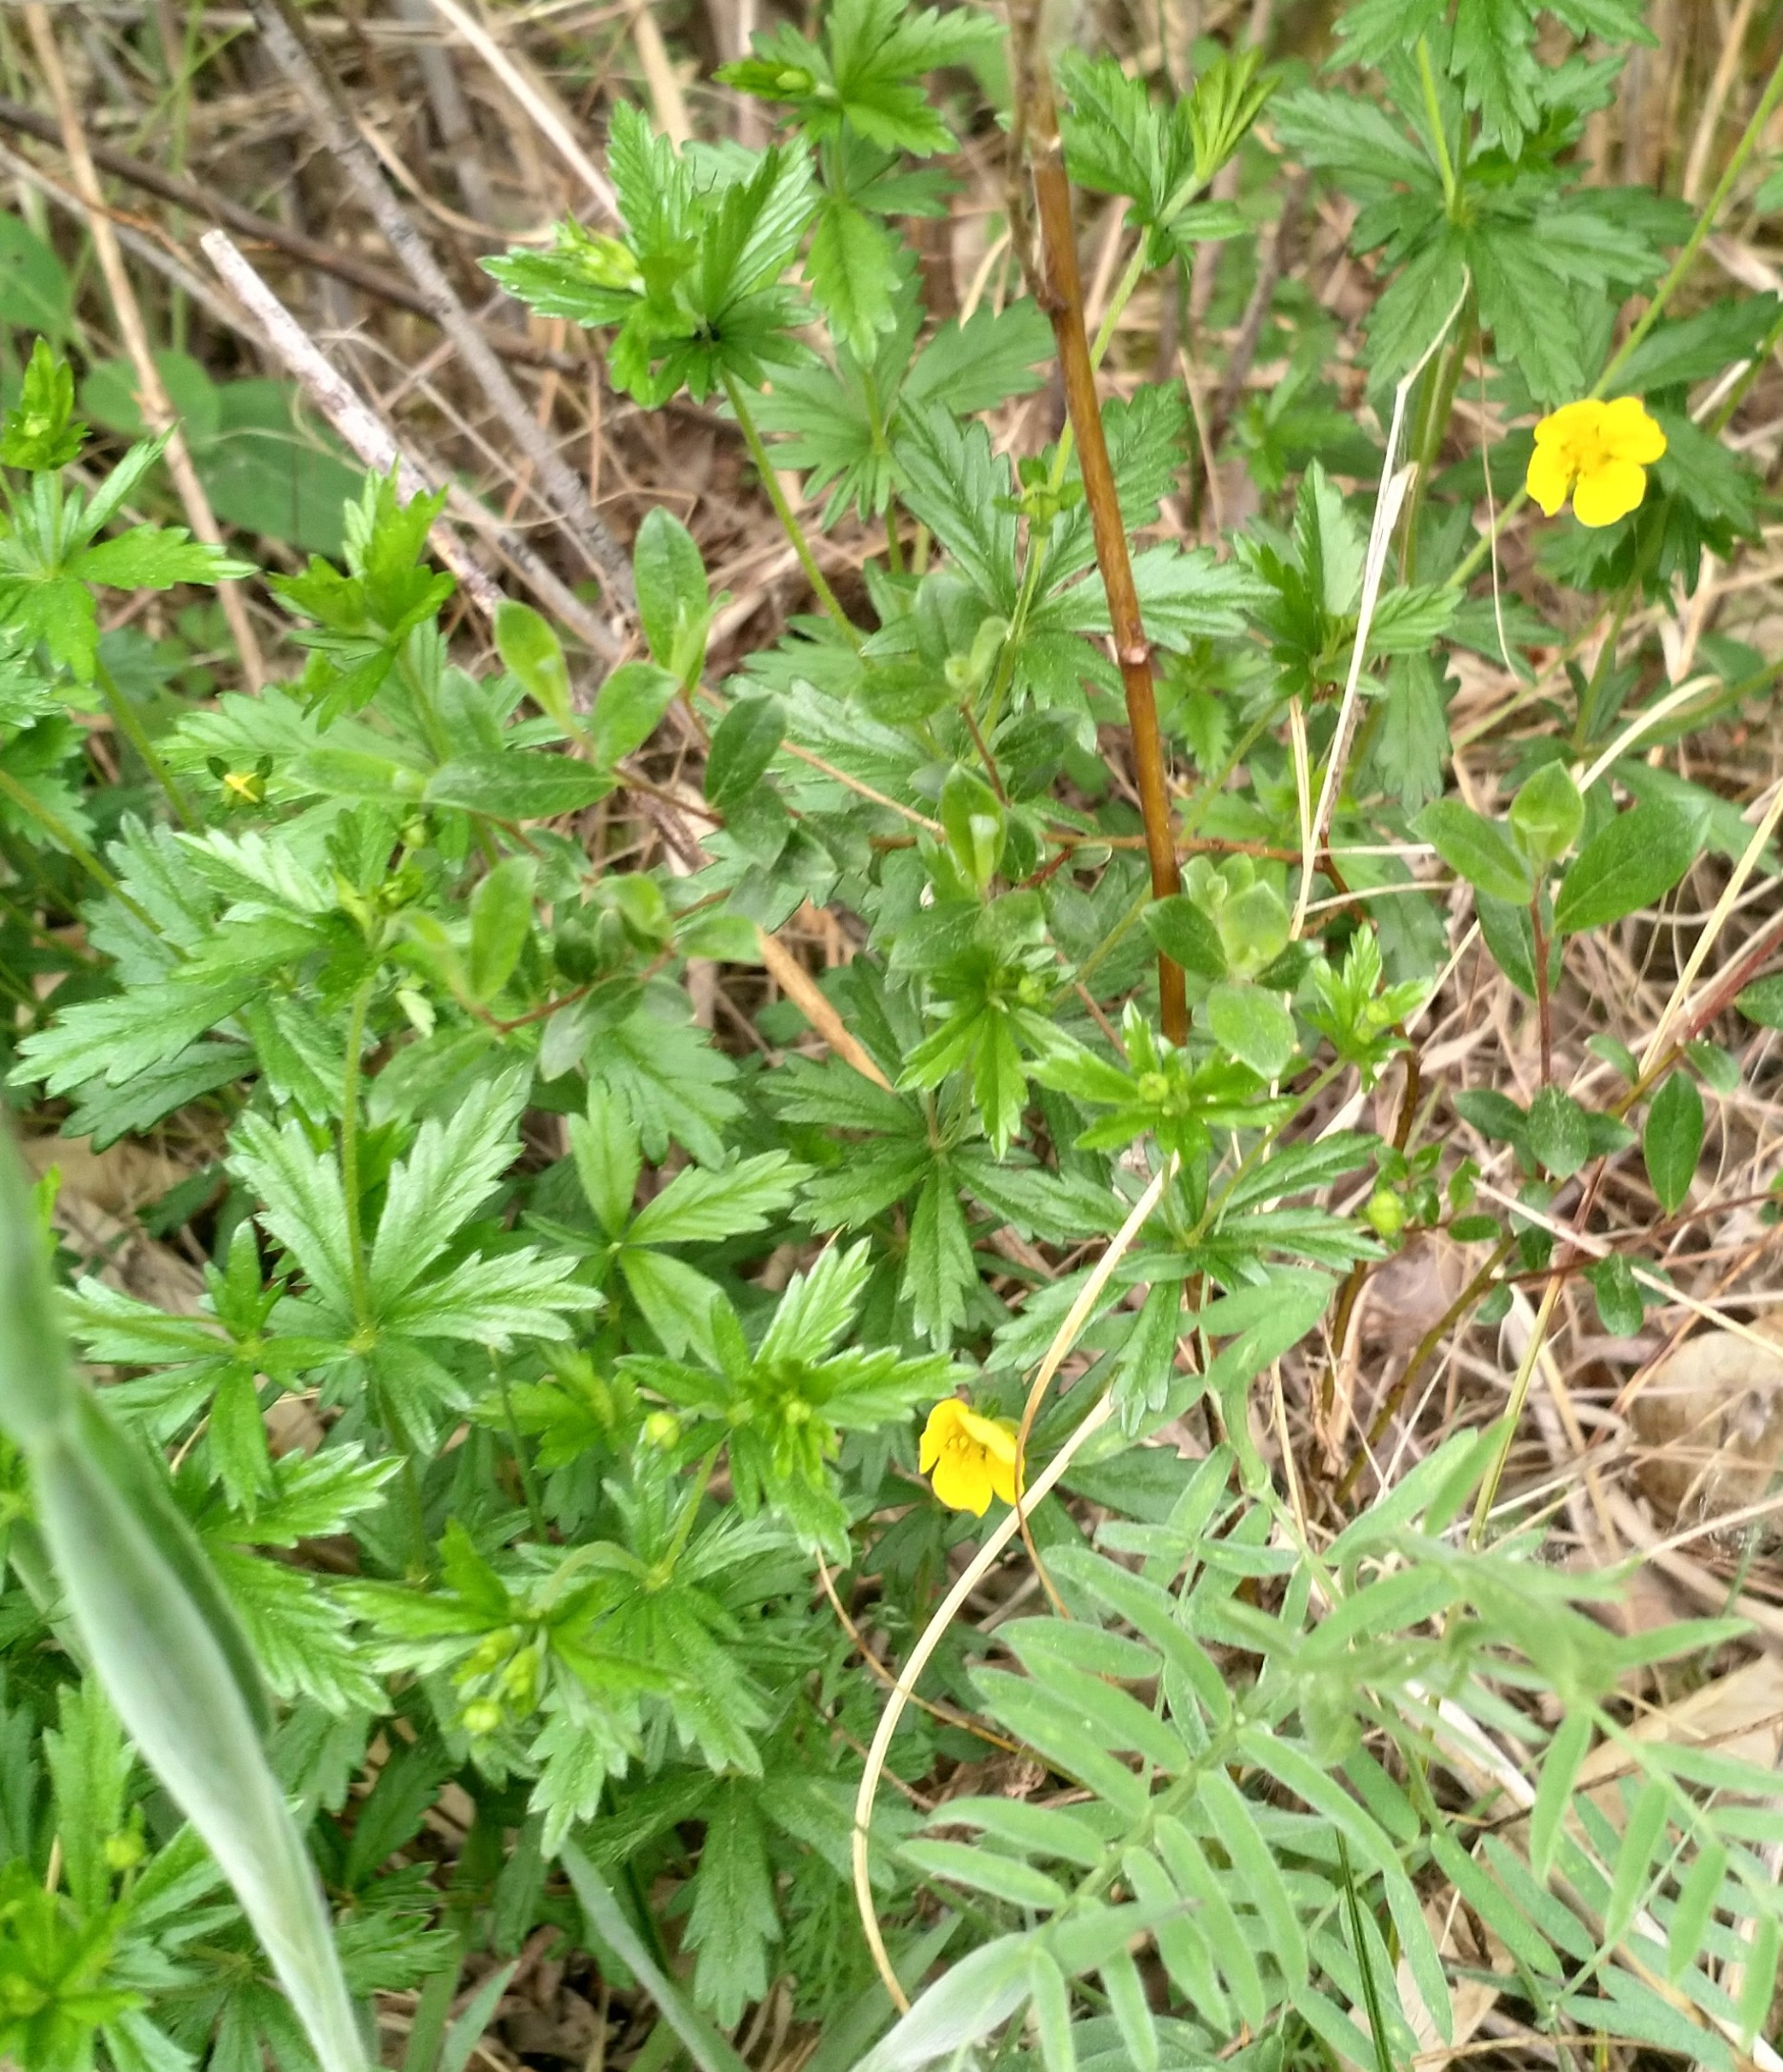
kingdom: Plantae
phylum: Tracheophyta
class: Magnoliopsida
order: Rosales
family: Rosaceae
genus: Potentilla
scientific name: Potentilla erecta
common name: Tormentil
